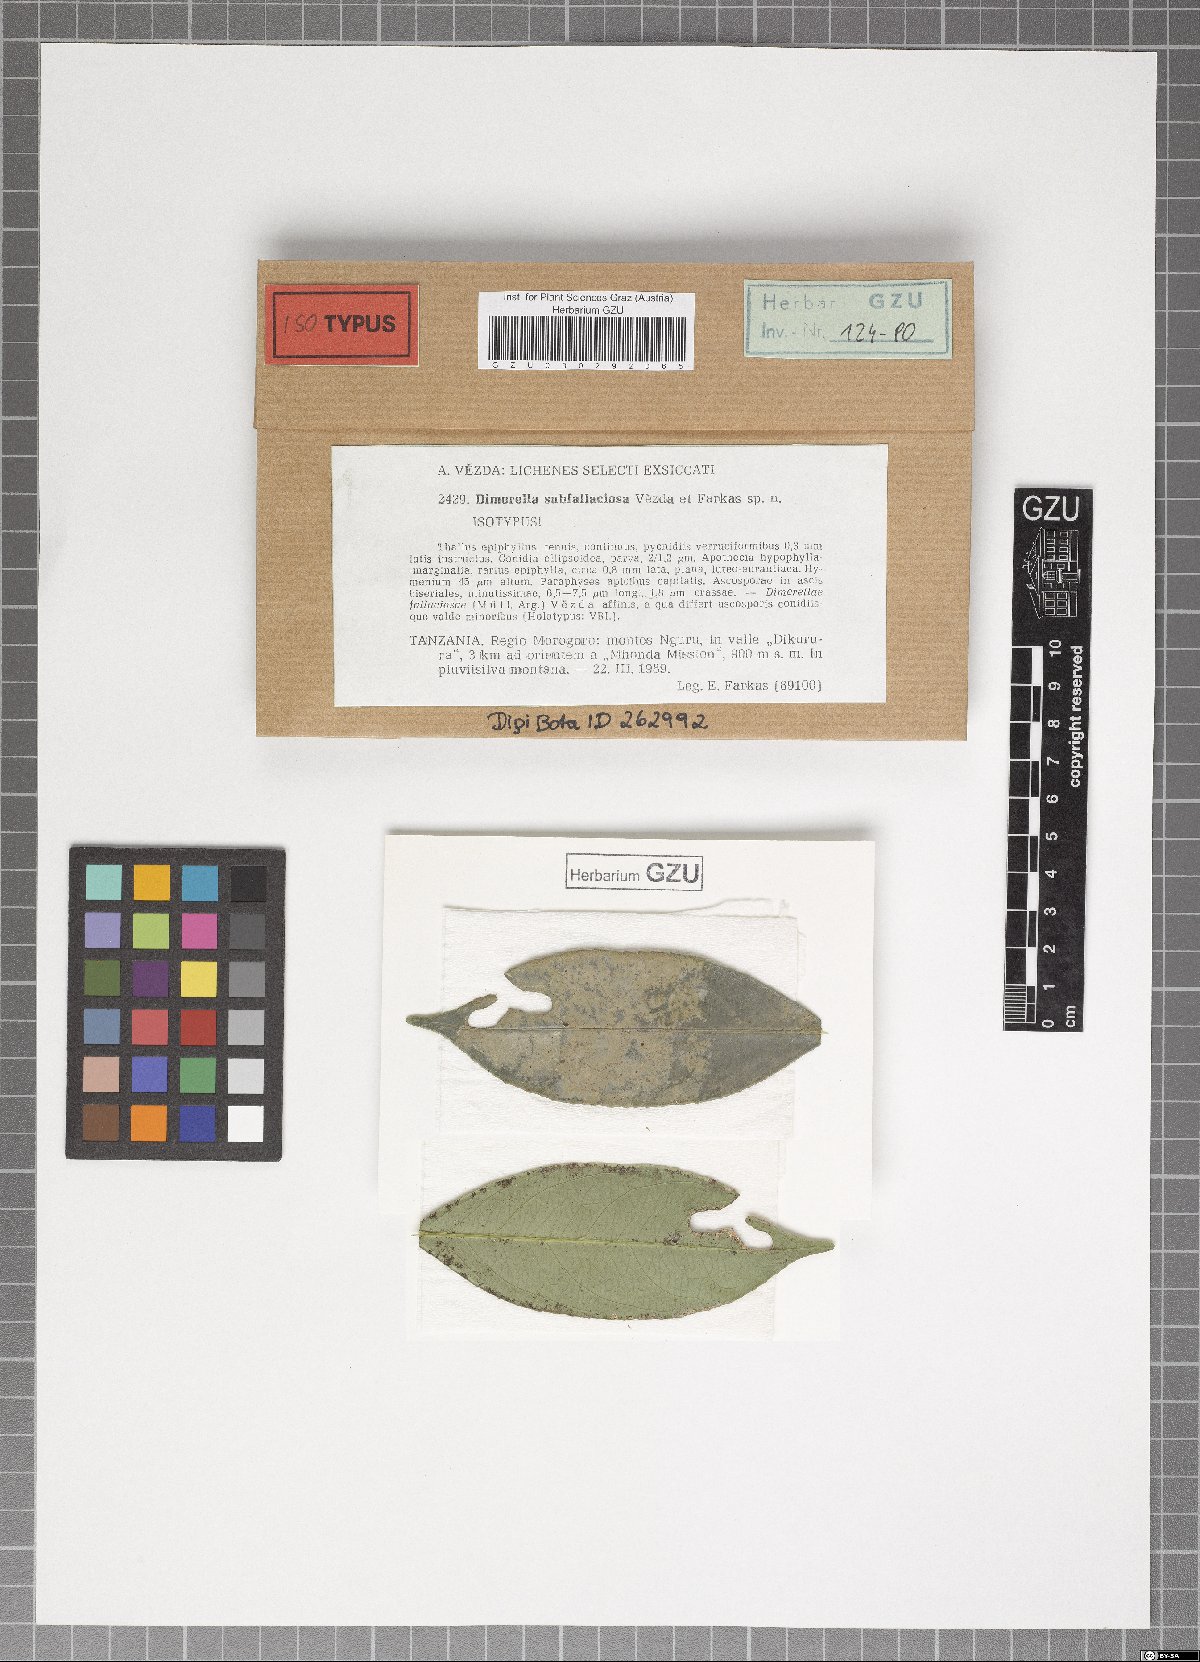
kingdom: Fungi
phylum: Ascomycota
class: Lecanoromycetes
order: Ostropales
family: Coenogoniaceae
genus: Coenogonium
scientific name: Coenogonium subfallaciosum
